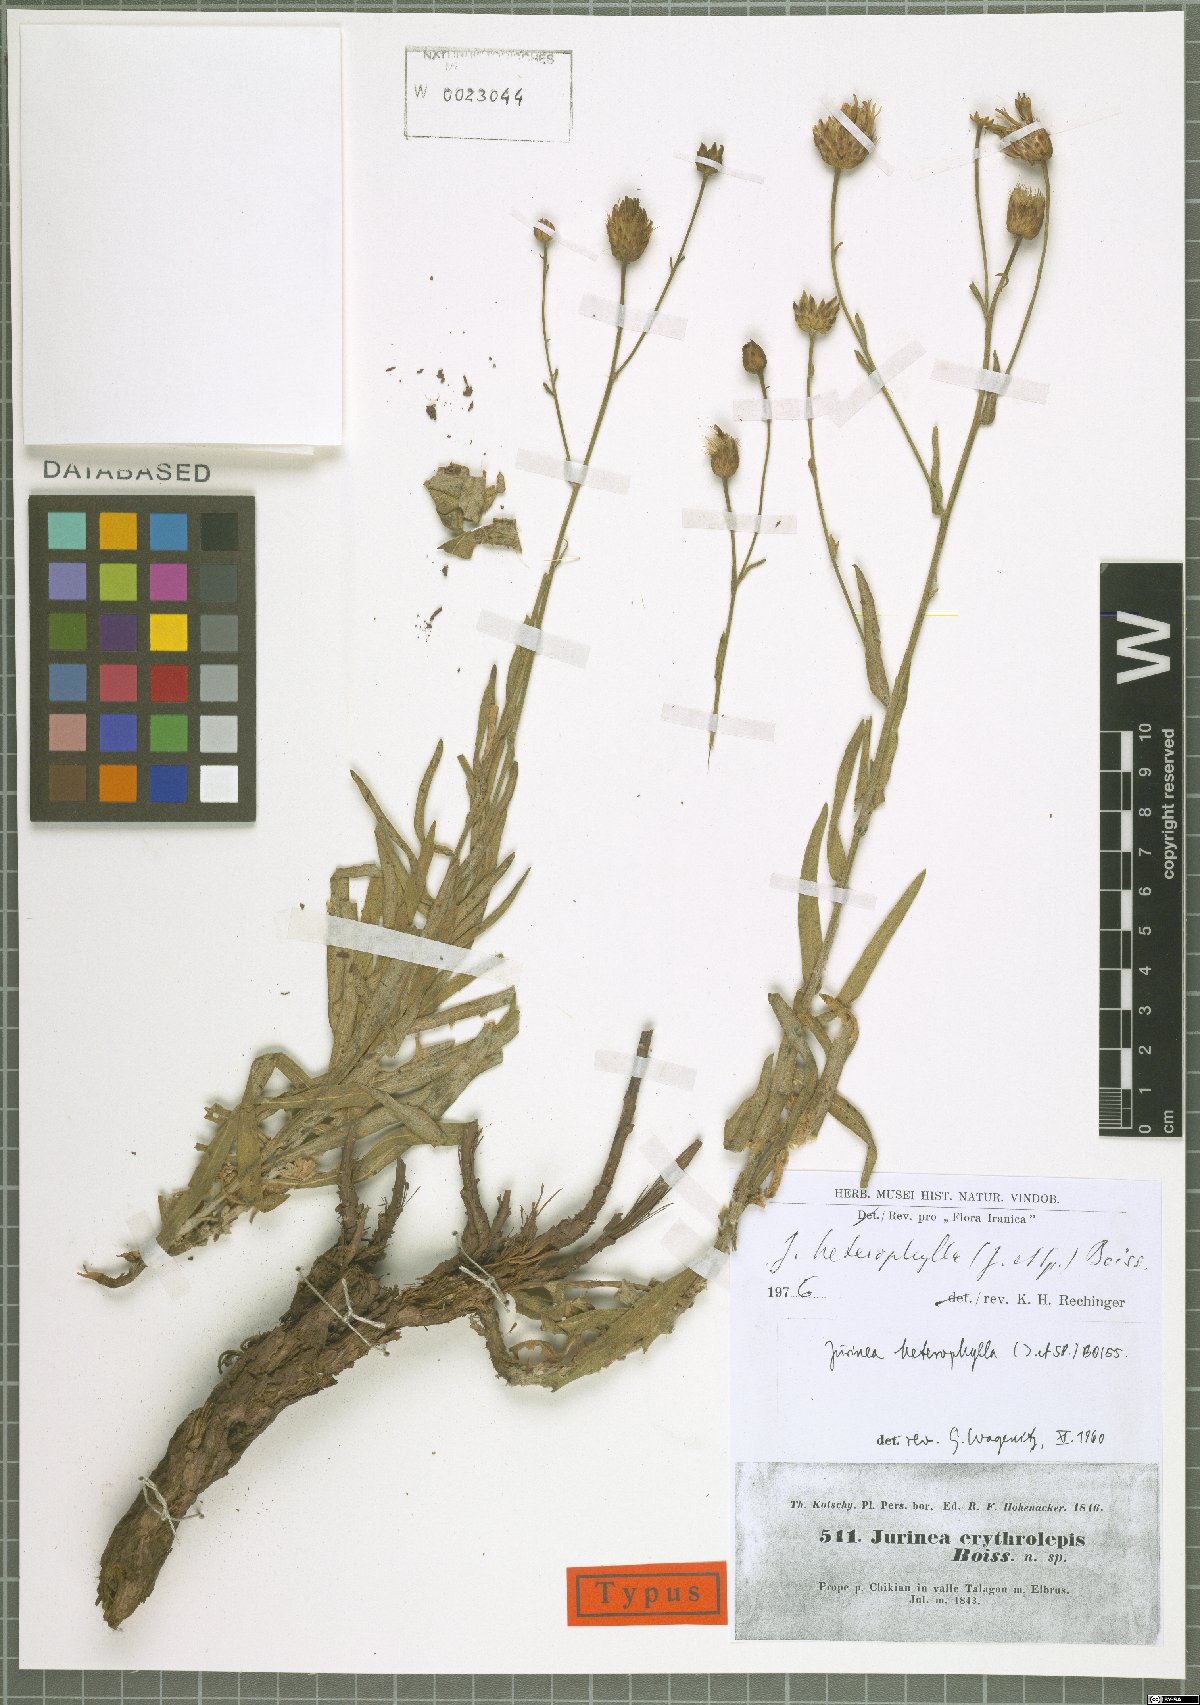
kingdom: Plantae
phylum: Tracheophyta
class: Magnoliopsida
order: Asterales
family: Asteraceae
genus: Jurinea
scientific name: Jurinea heterophylla
